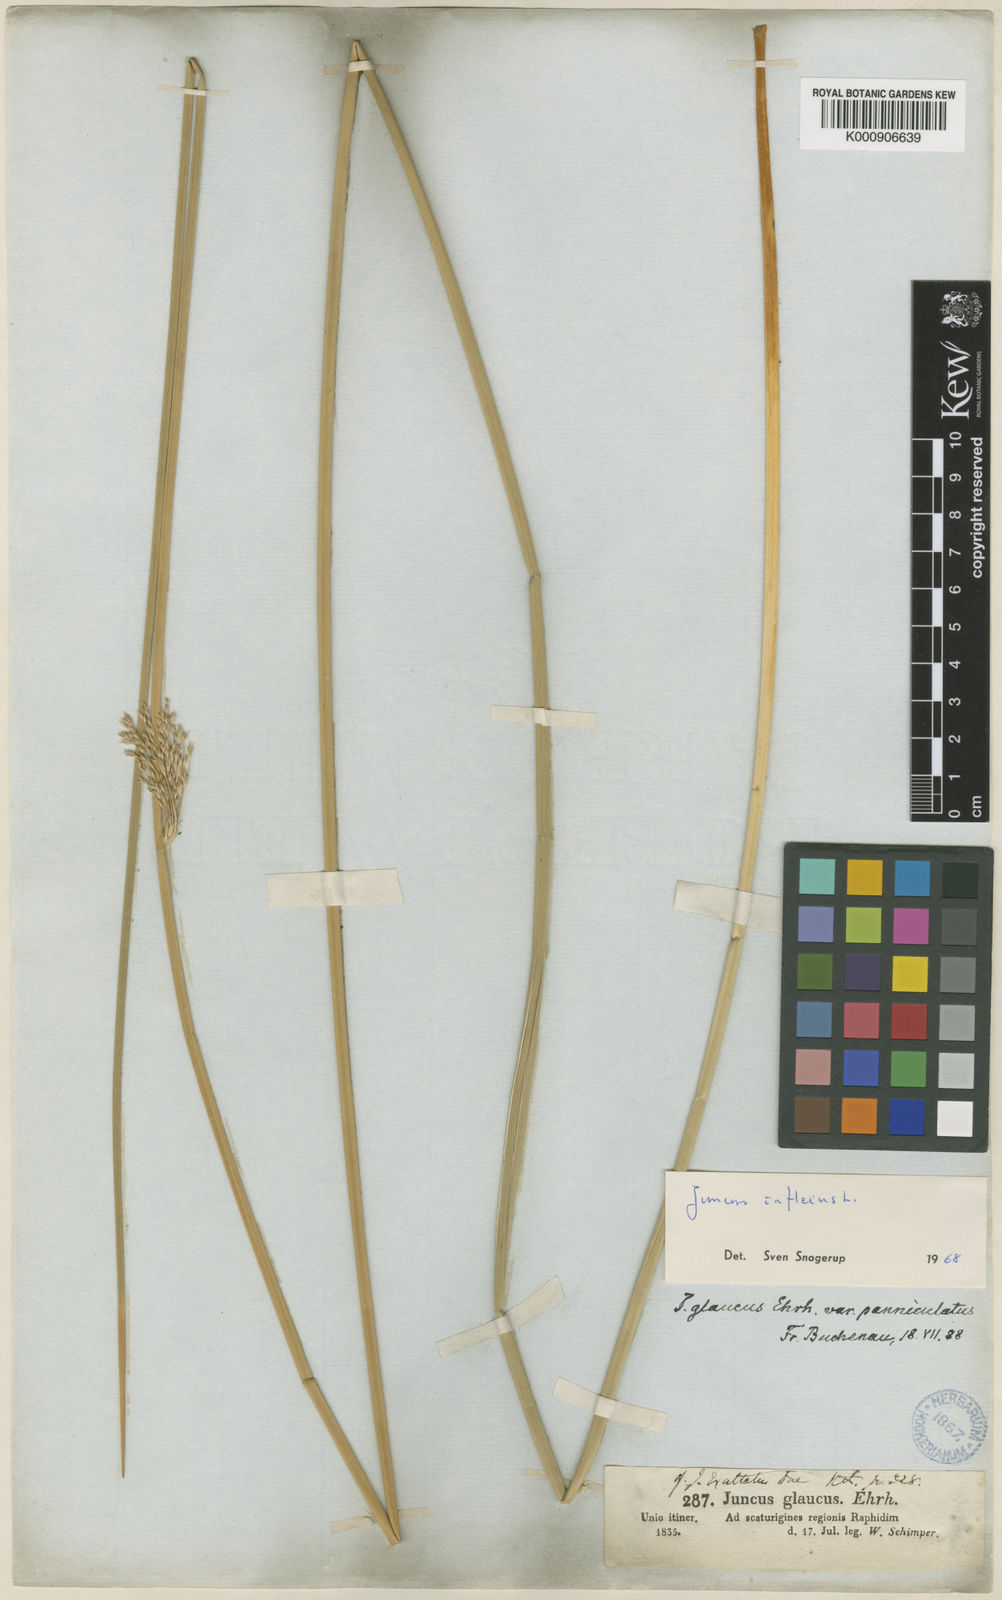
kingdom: Plantae
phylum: Tracheophyta
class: Liliopsida
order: Poales
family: Juncaceae
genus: Juncus
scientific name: Juncus inflexus
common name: Hard rush
